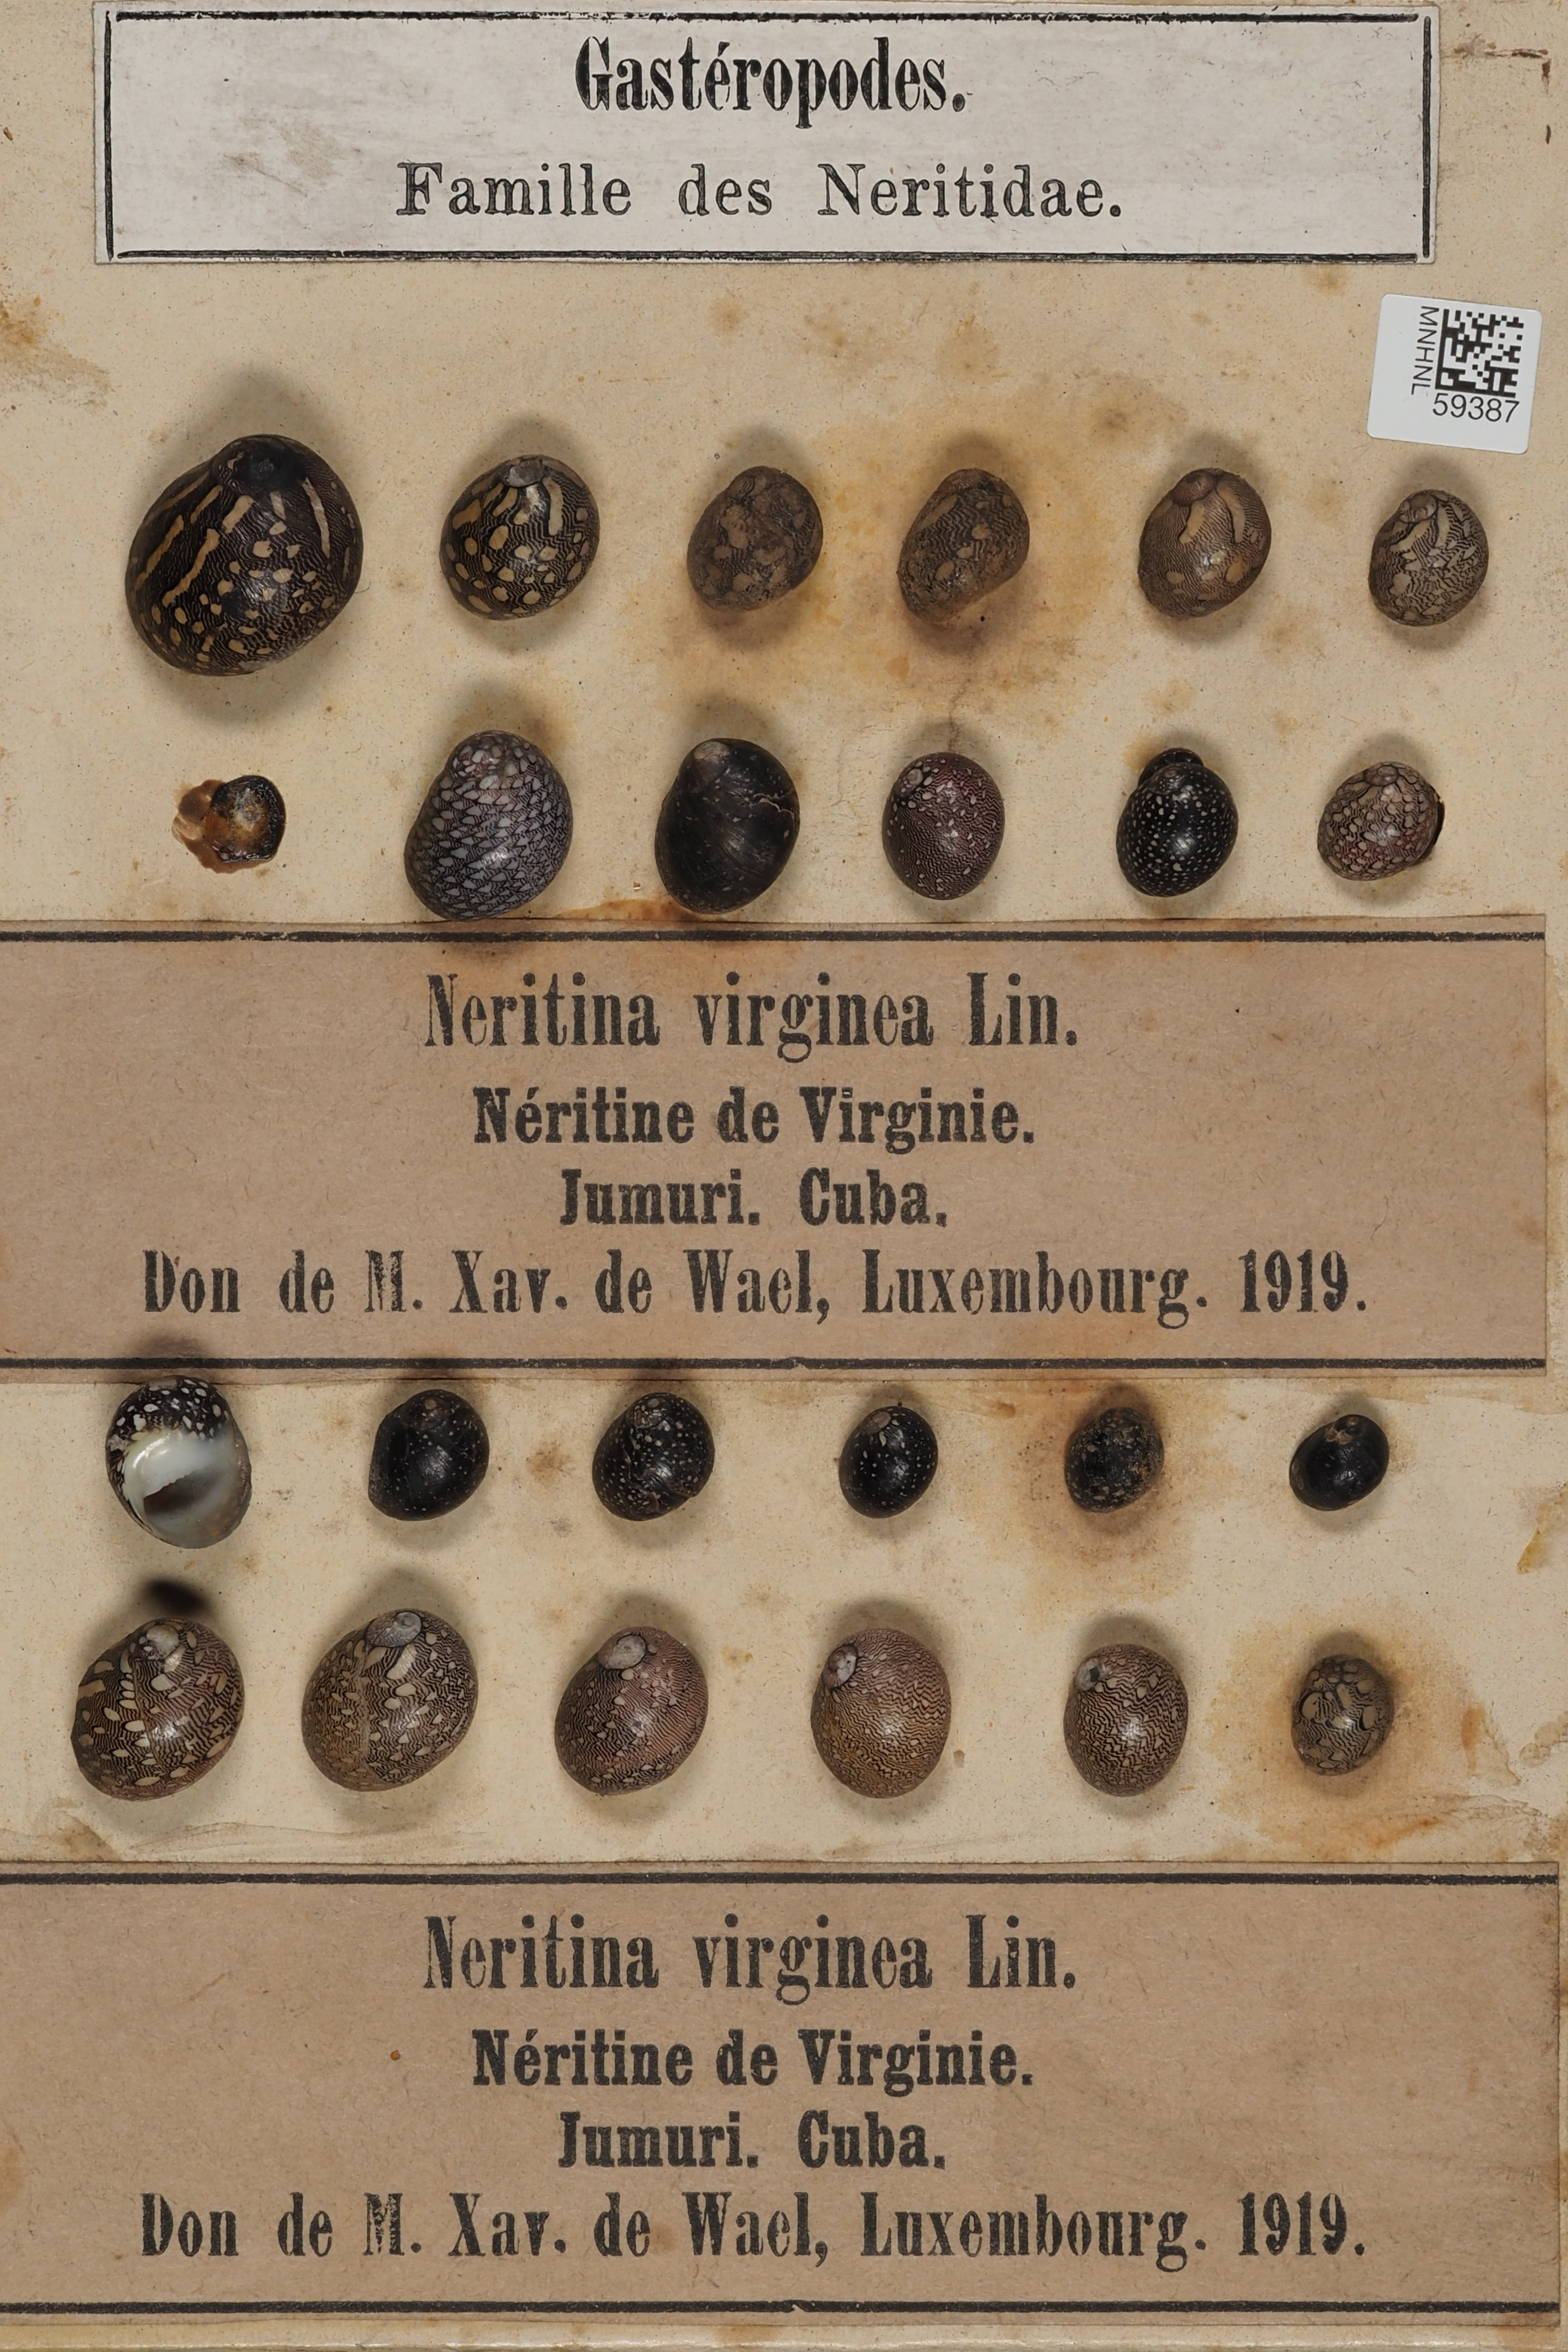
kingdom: Animalia
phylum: Mollusca
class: Gastropoda
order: Cycloneritida
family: Neritidae
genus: Vitta
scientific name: Vitta virginea
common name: Virgin nerite
